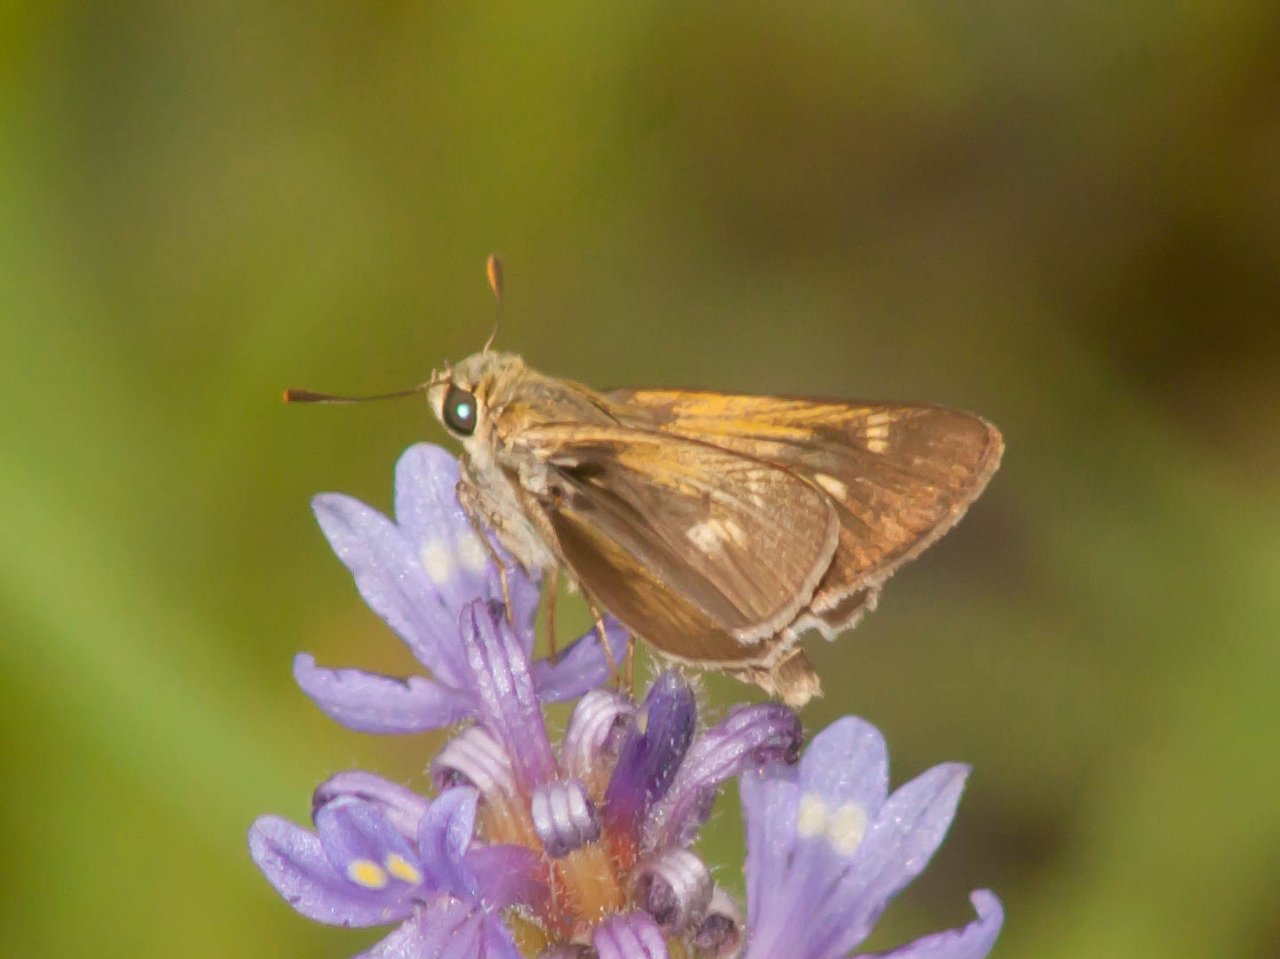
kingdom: Animalia
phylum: Arthropoda
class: Insecta
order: Lepidoptera
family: Hesperiidae
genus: Polites
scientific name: Polites themistocles
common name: Tawny-edged Skipper
